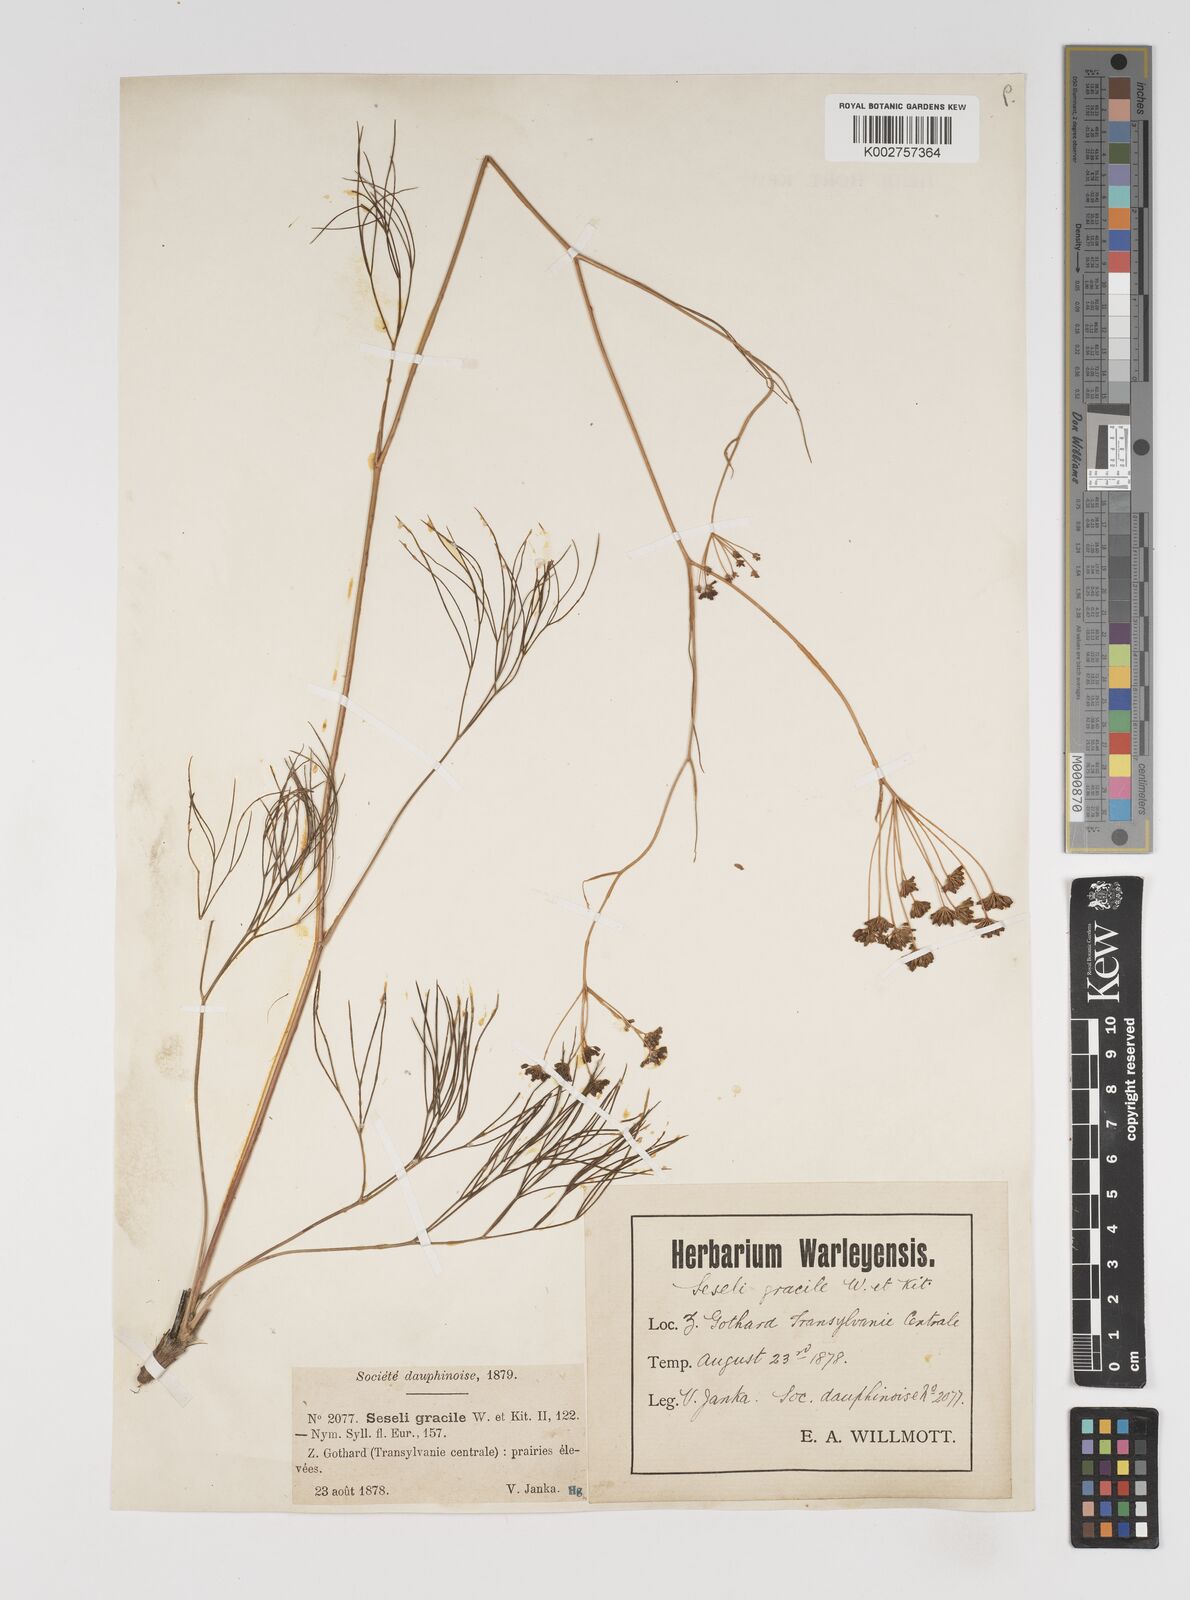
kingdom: Plantae
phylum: Tracheophyta
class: Magnoliopsida
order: Apiales
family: Apiaceae
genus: Seseli
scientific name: Seseli gracile
